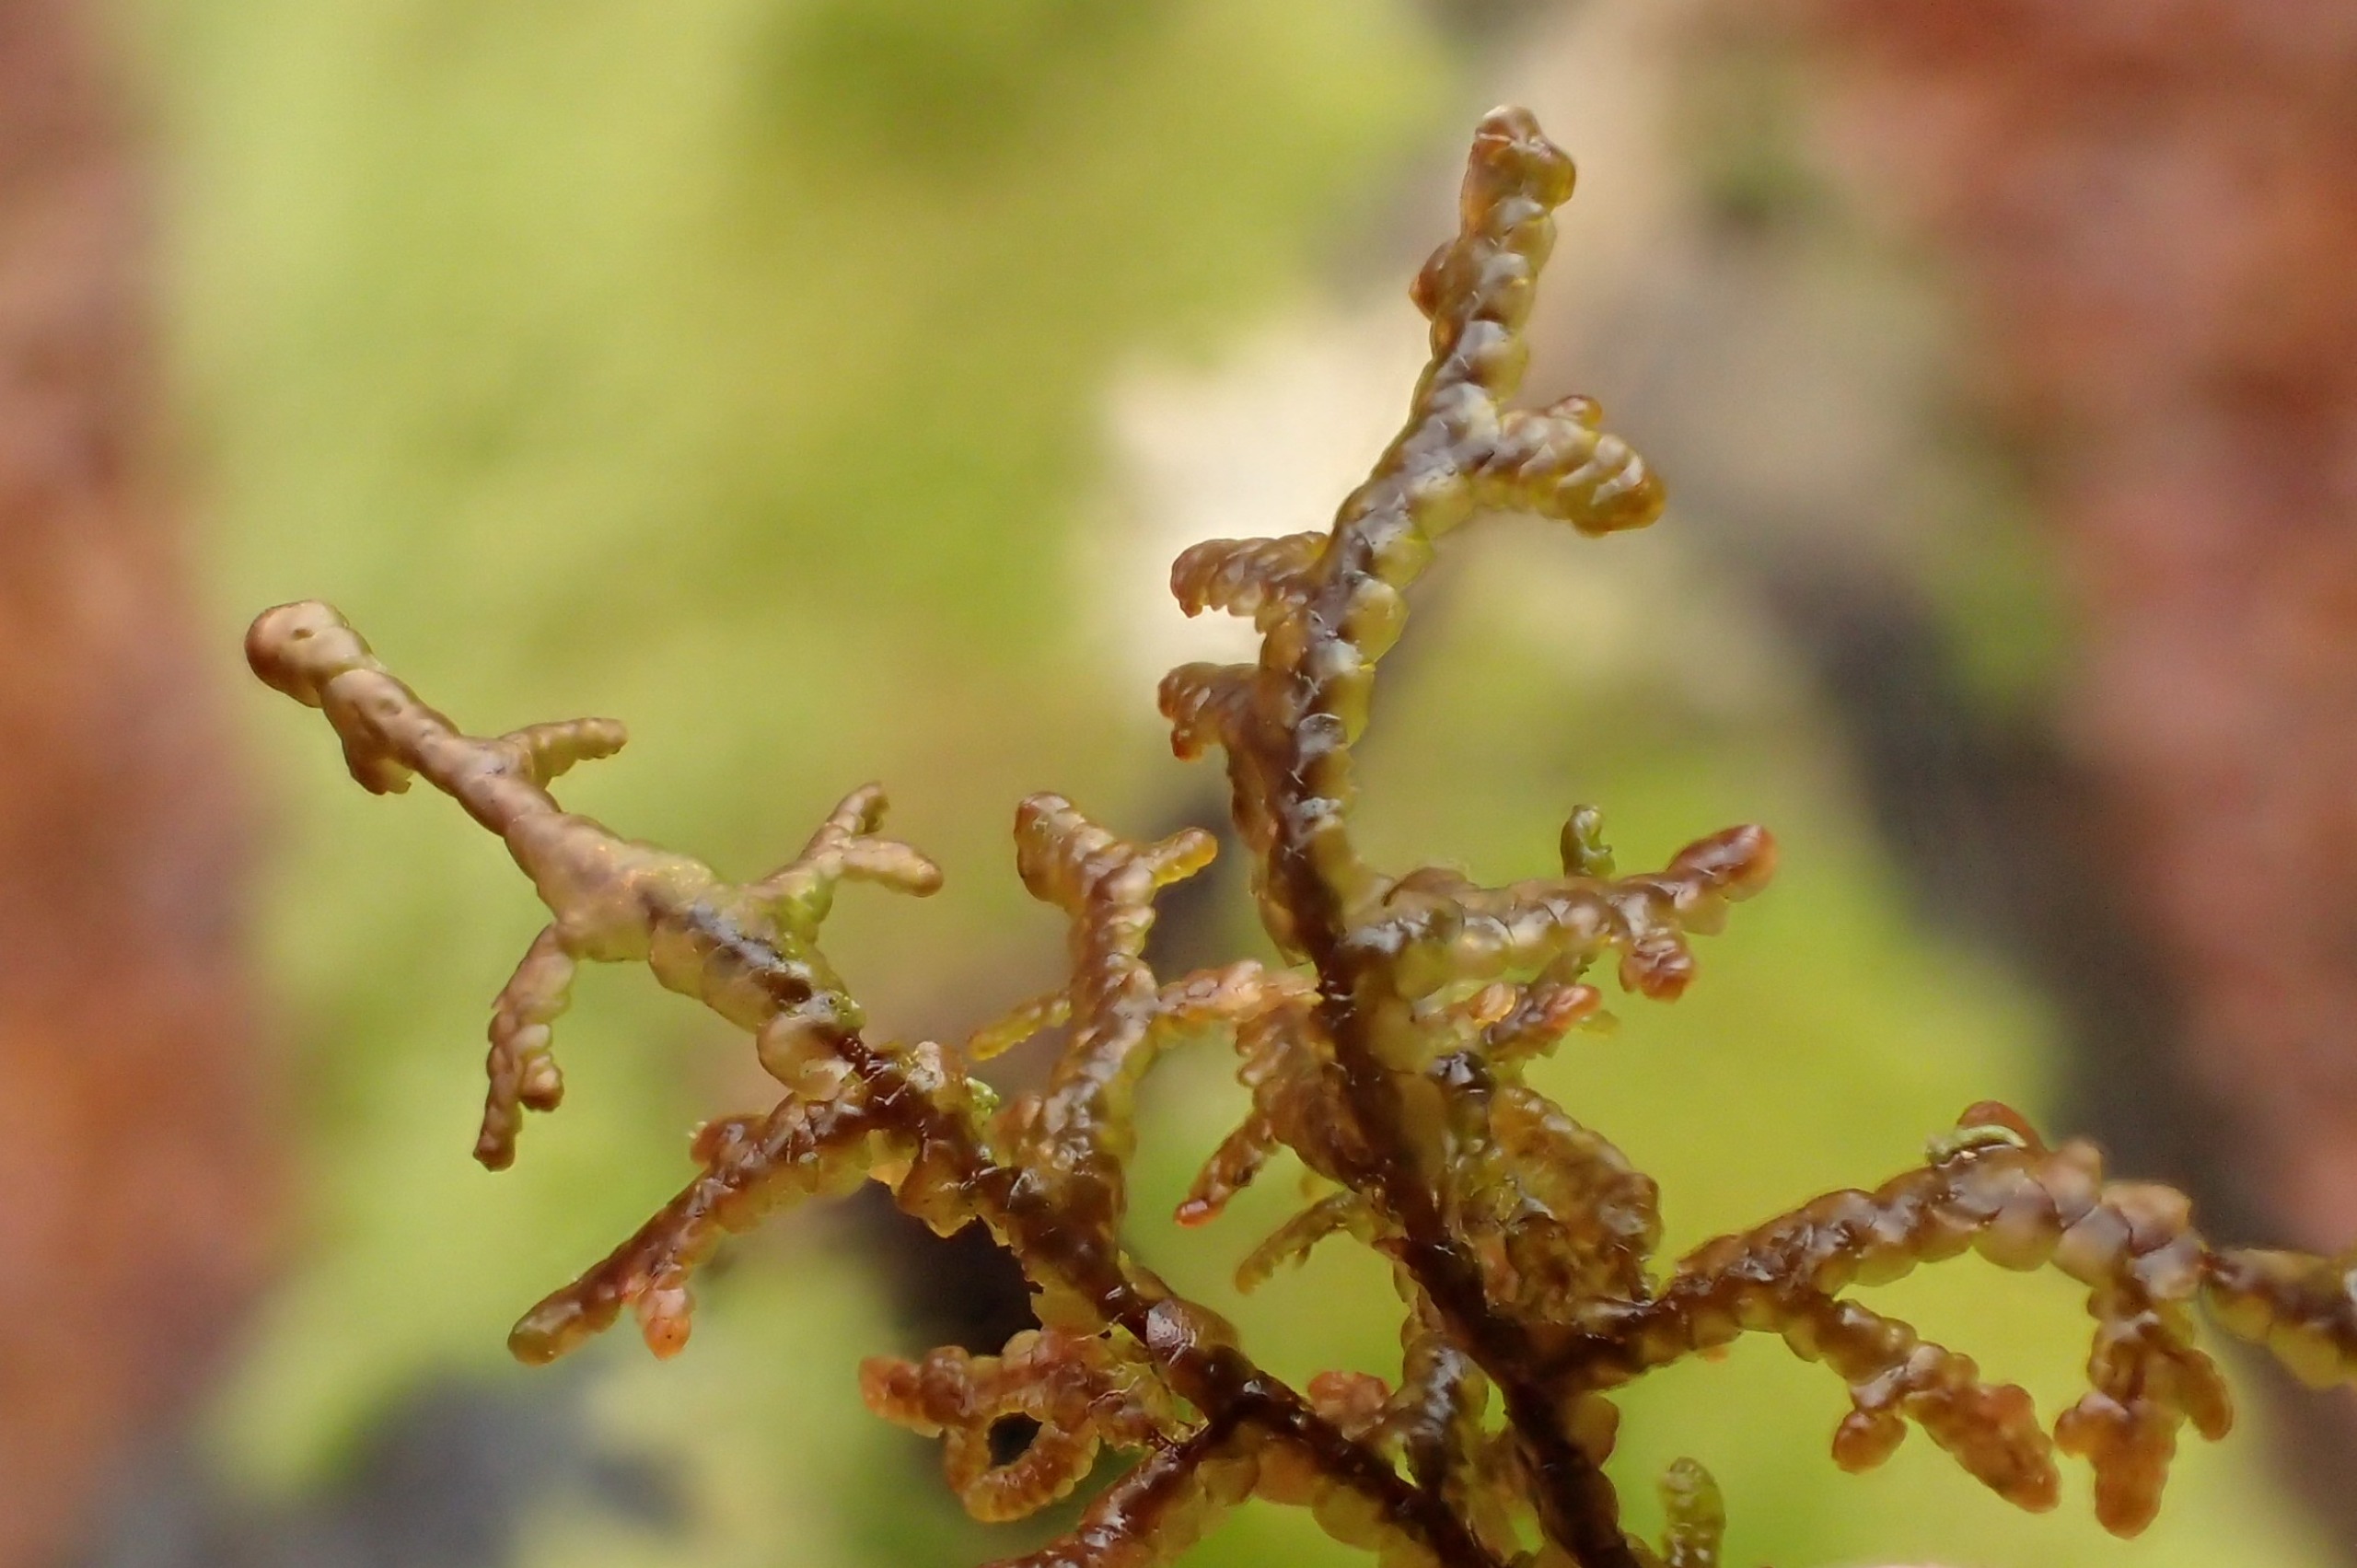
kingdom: Plantae
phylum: Marchantiophyta
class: Jungermanniopsida
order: Porellales
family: Frullaniaceae
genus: Frullania
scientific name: Frullania tamarisci
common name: Glinsende bronzemos
